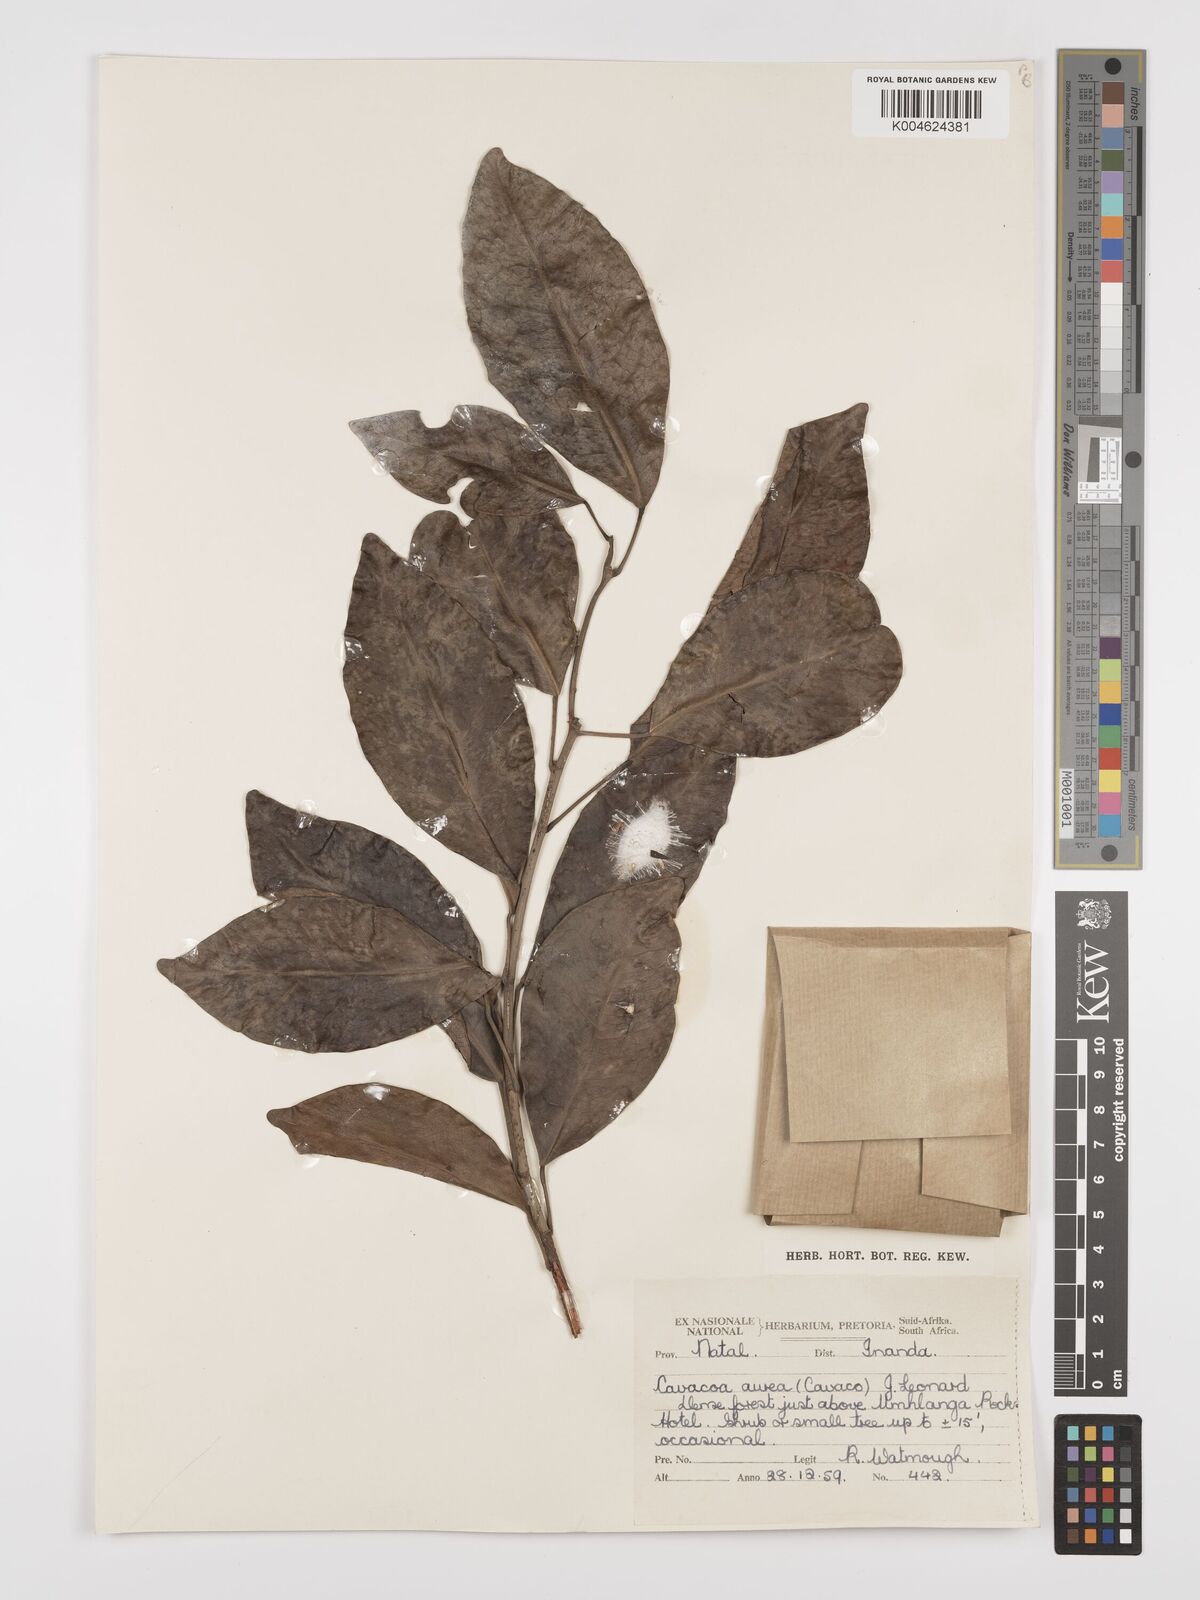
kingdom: Plantae
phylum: Tracheophyta
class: Magnoliopsida
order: Malpighiales
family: Euphorbiaceae
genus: Cavacoa
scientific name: Cavacoa aurea
